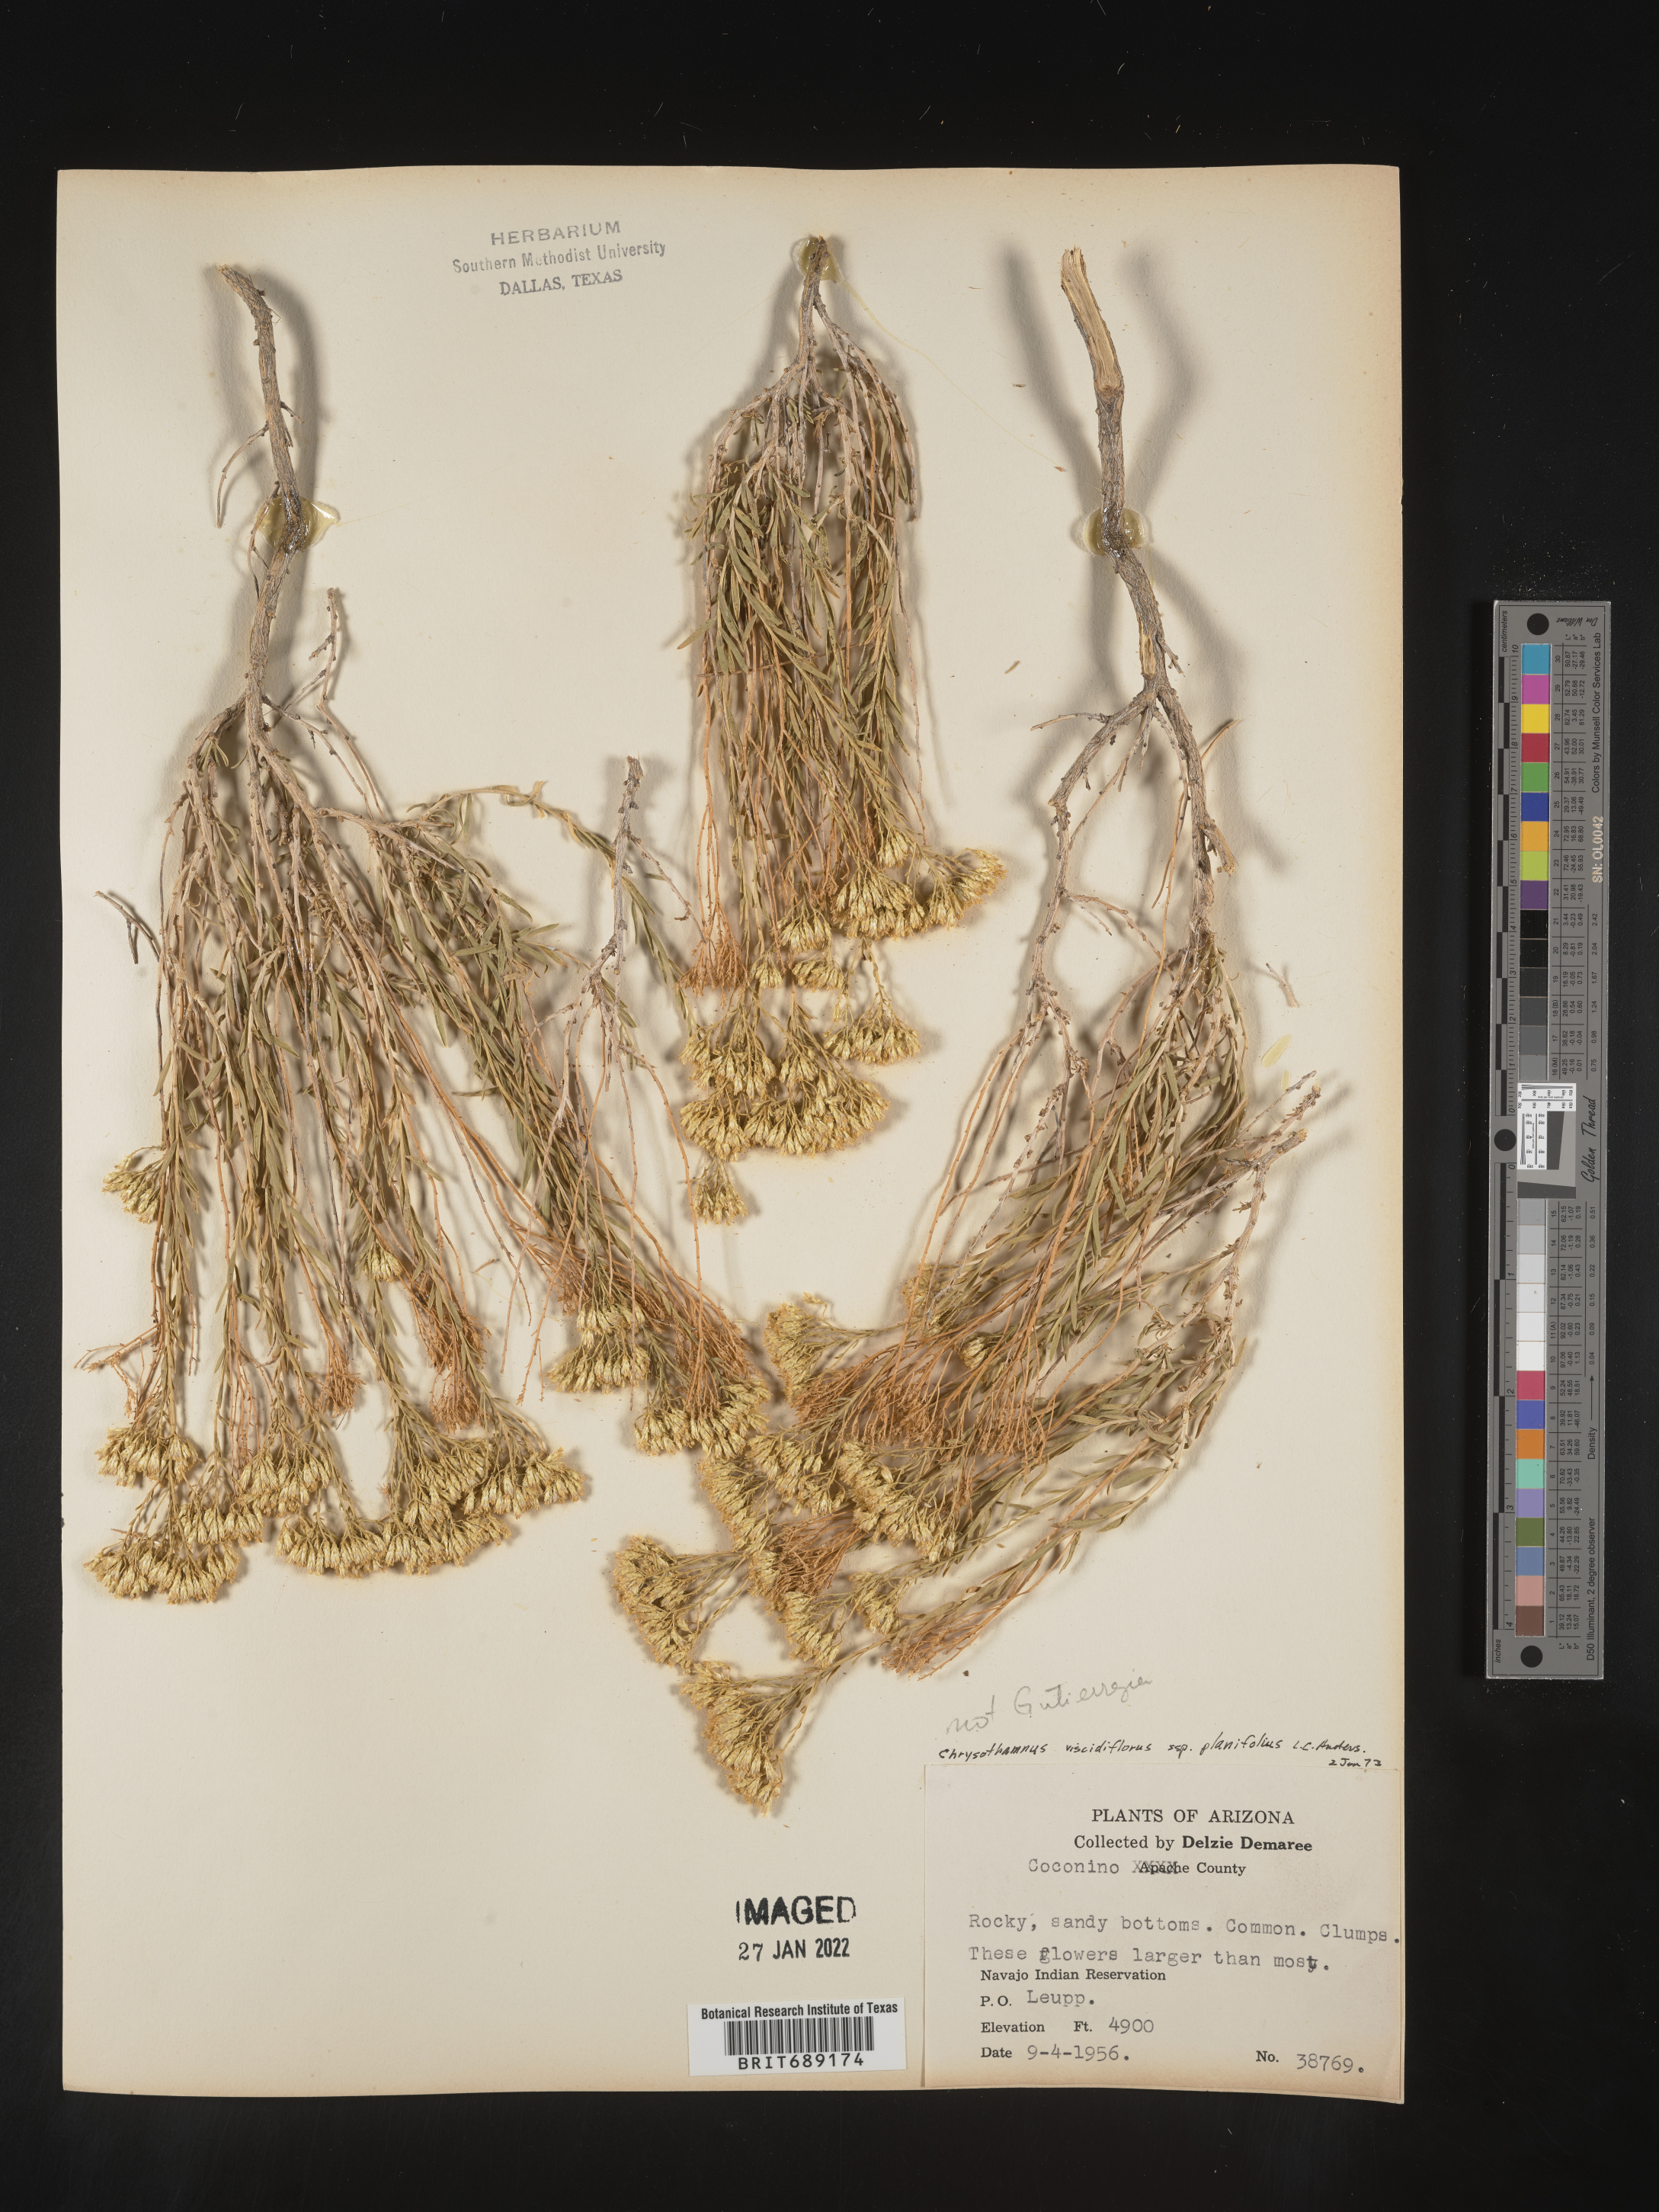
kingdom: Plantae
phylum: Tracheophyta
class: Magnoliopsida
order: Asterales
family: Asteraceae
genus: Chrysothamnus
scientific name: Chrysothamnus
